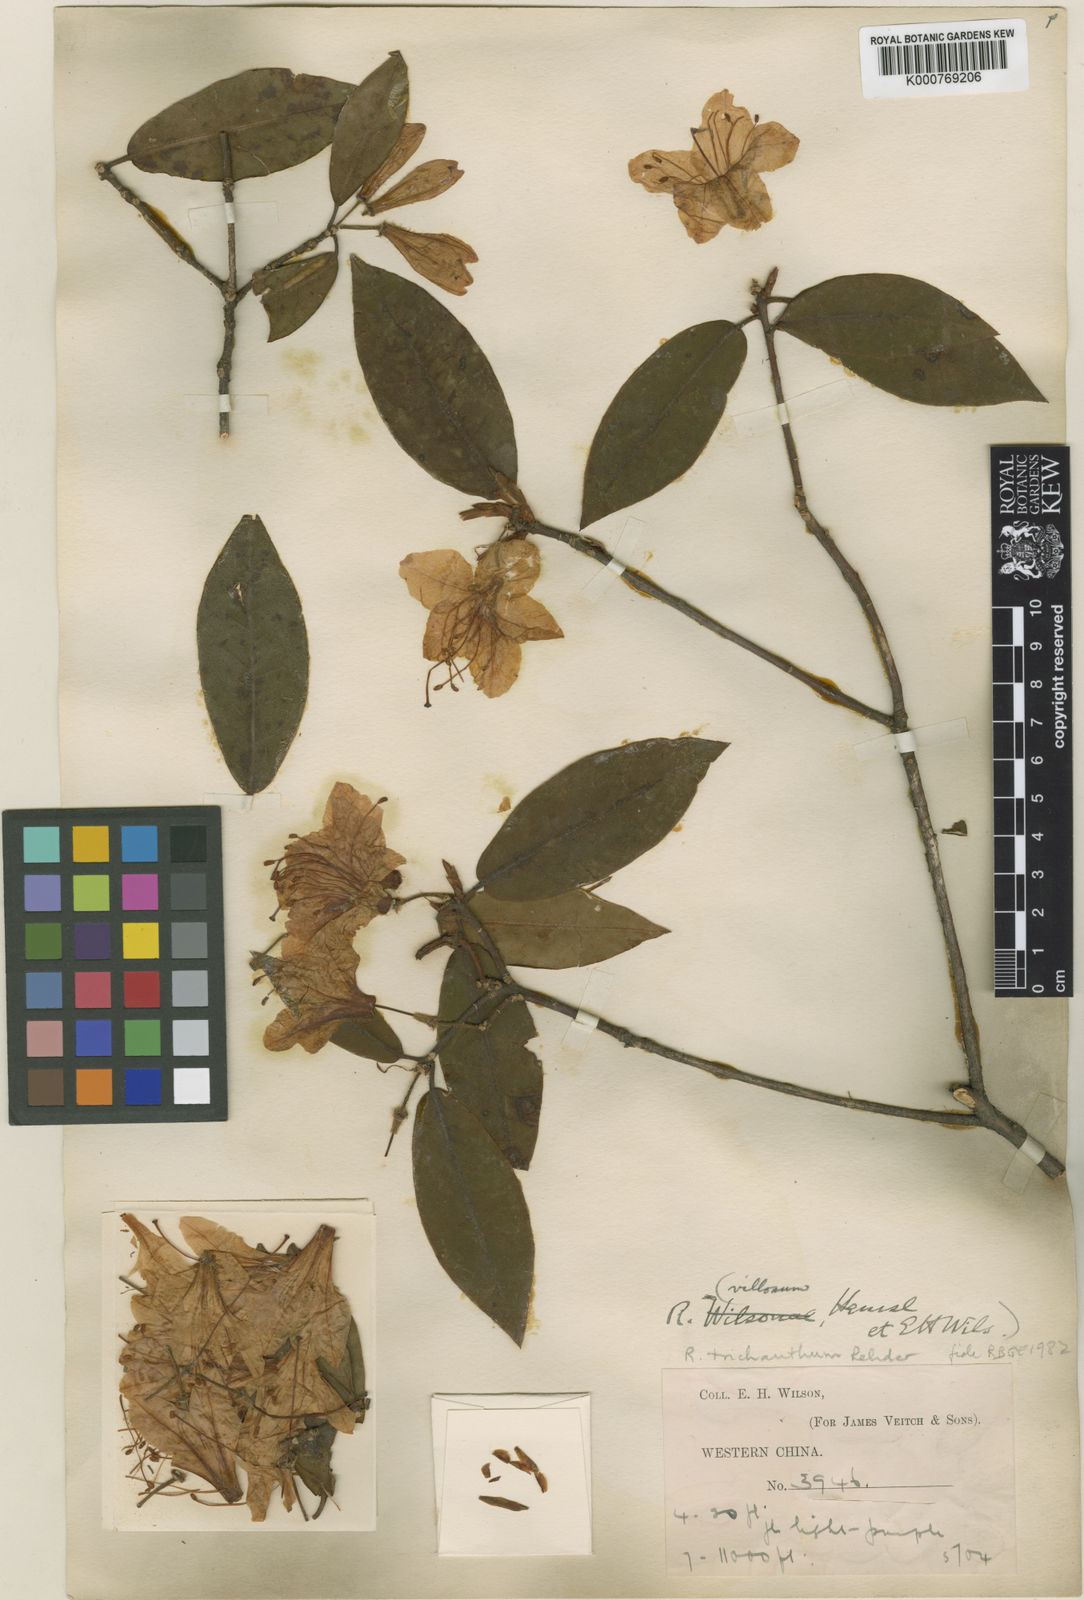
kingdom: Plantae
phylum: Tracheophyta
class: Magnoliopsida
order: Ericales
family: Ericaceae
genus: Rhododendron
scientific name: Rhododendron trichanthum
